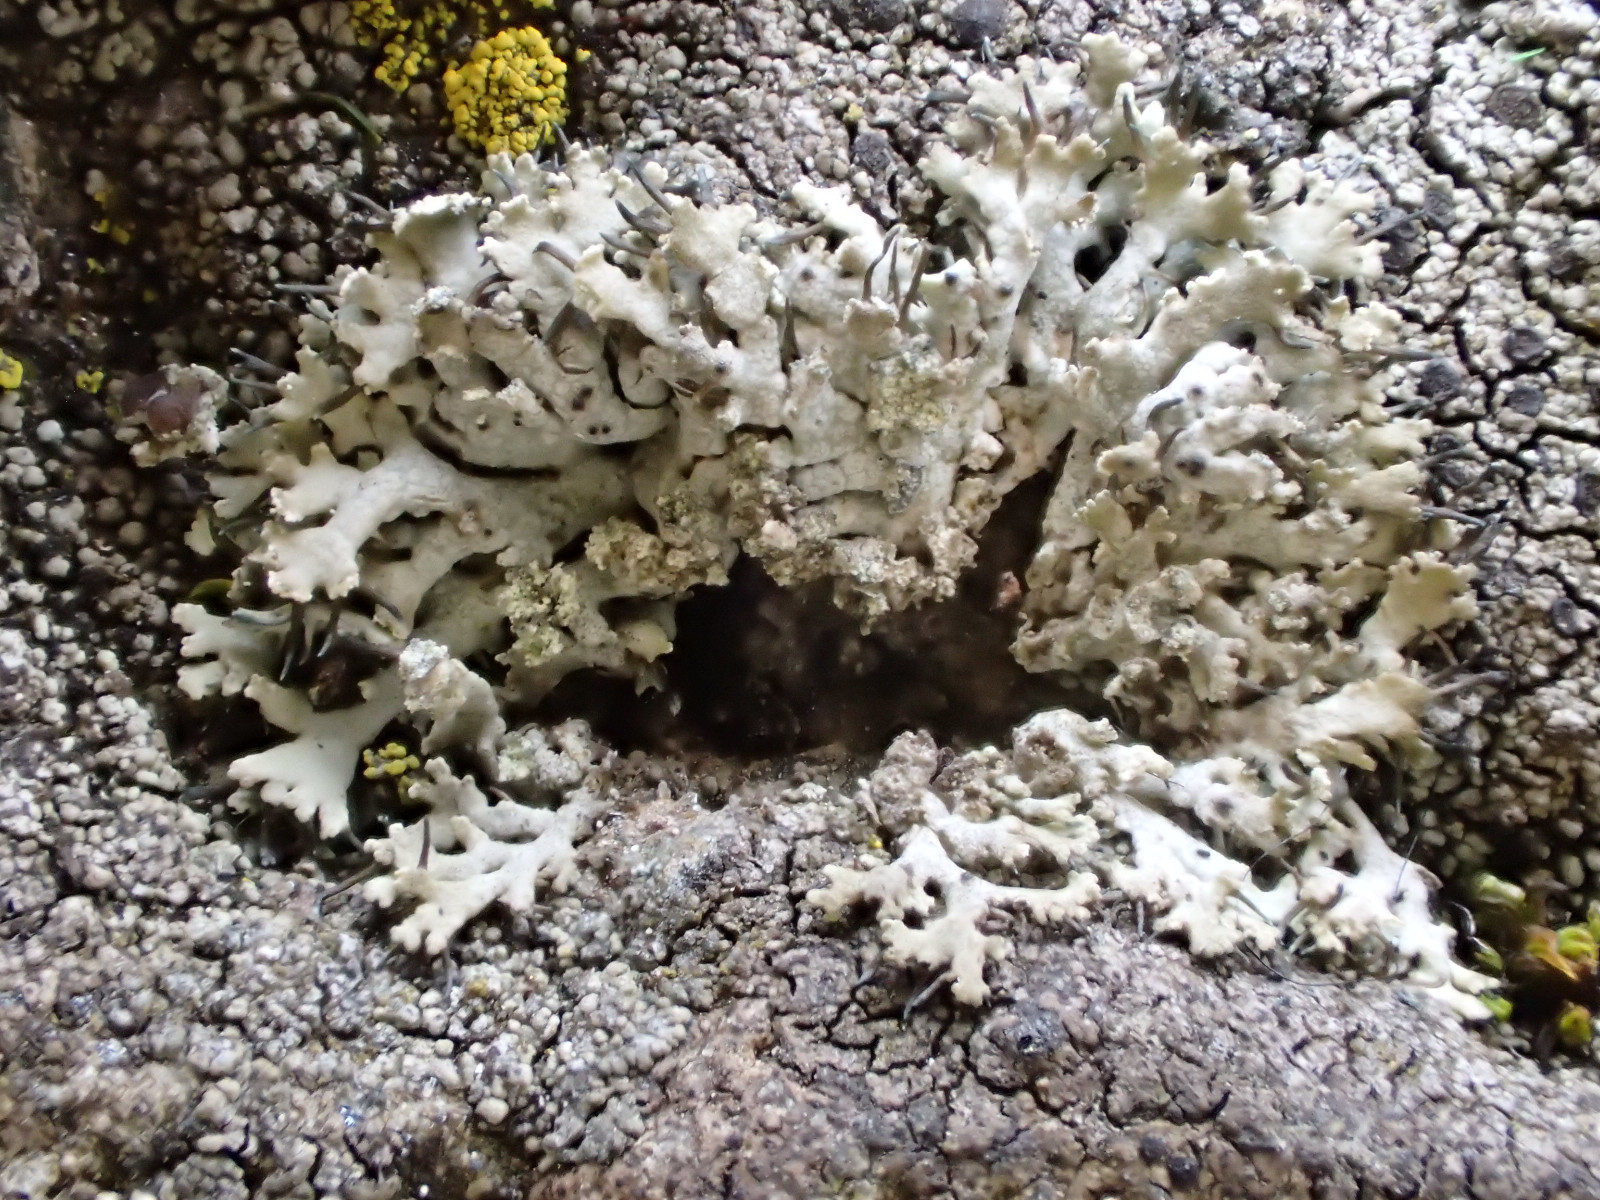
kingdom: Fungi
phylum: Ascomycota
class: Lecanoromycetes
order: Caliciales
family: Physciaceae
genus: Physcia
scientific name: Physcia tenella
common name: spæd rosetlav
